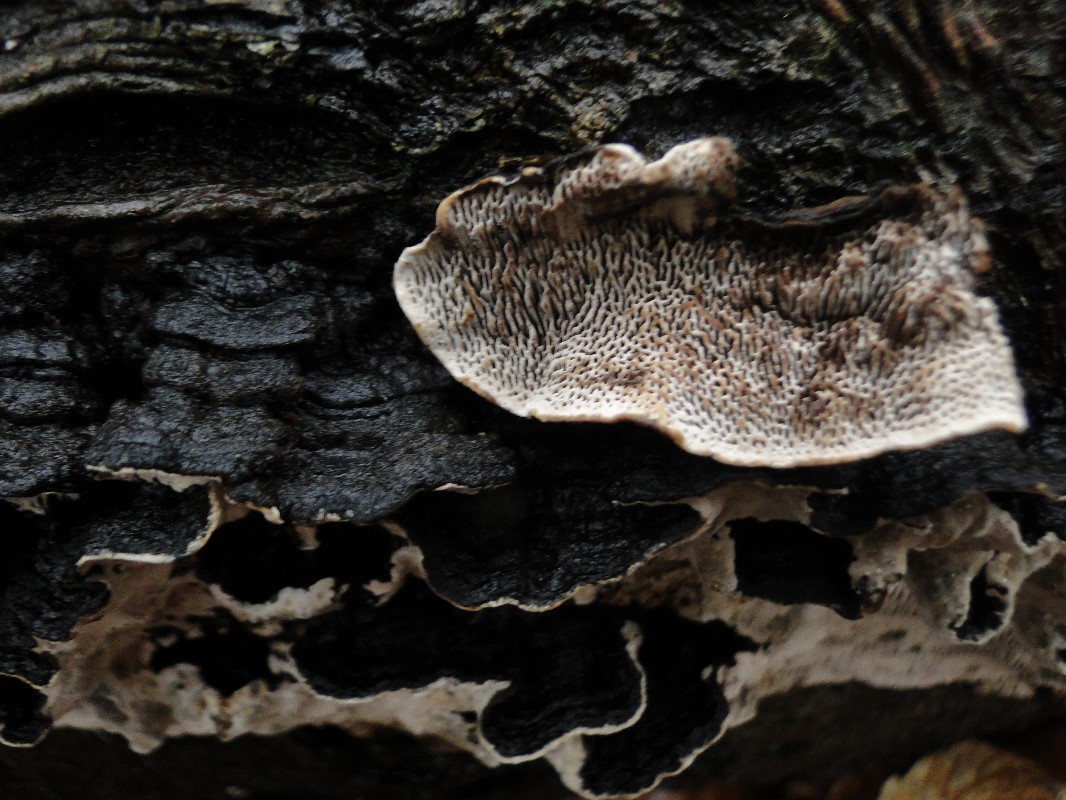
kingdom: Fungi
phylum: Basidiomycota
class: Agaricomycetes
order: Polyporales
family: Polyporaceae
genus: Podofomes
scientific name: Podofomes mollis
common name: blød begporesvamp
